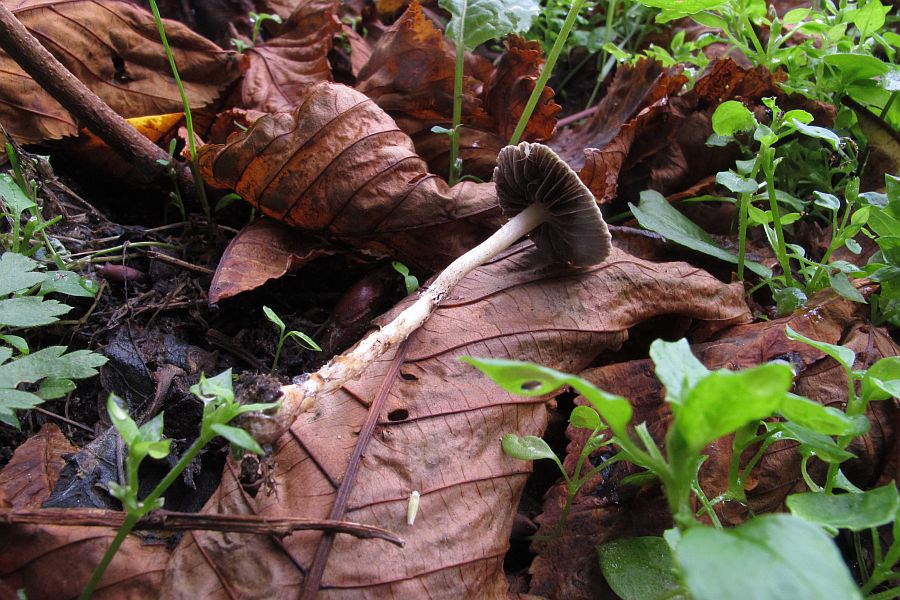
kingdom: Fungi
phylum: Basidiomycota
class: Agaricomycetes
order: Agaricales
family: Strophariaceae
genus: Protostropharia
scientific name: Protostropharia semiglobata
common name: halvkugleformet bredblad
